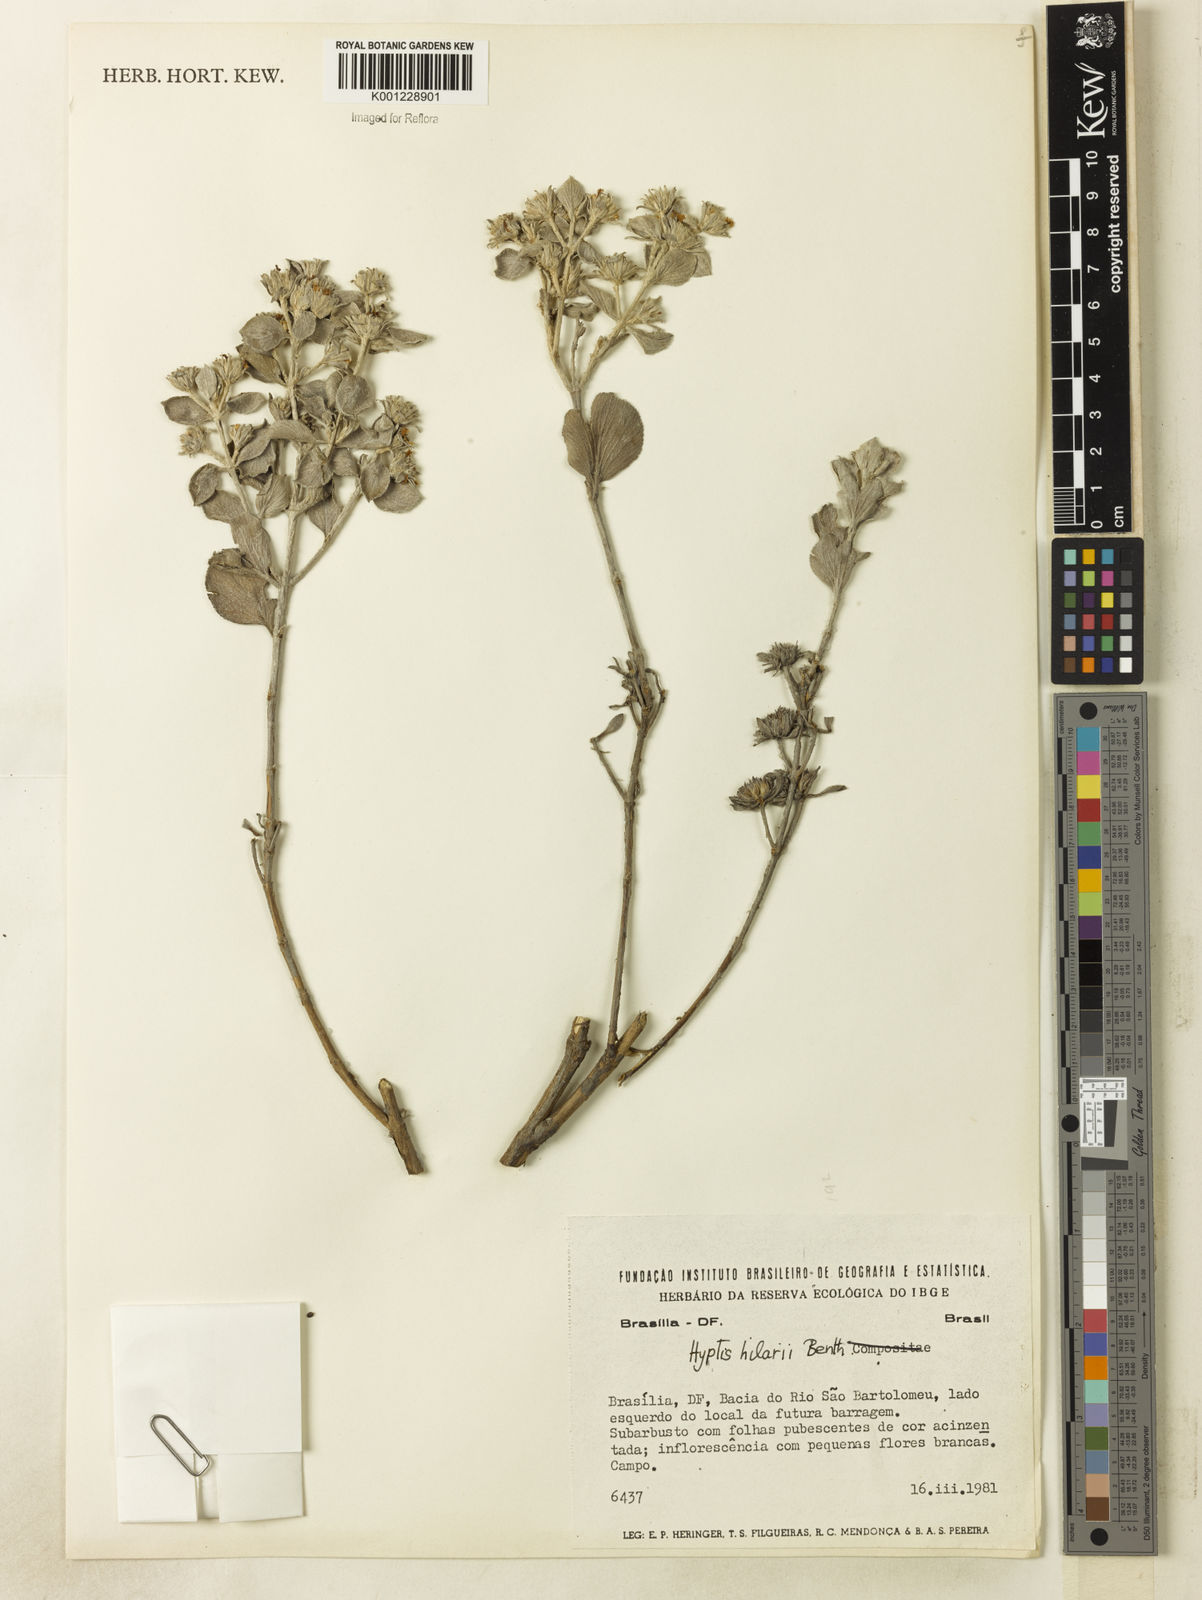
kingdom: Plantae
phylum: Tracheophyta
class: Magnoliopsida
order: Lamiales
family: Lamiaceae
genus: Hyptis
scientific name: Hyptis hilarii
